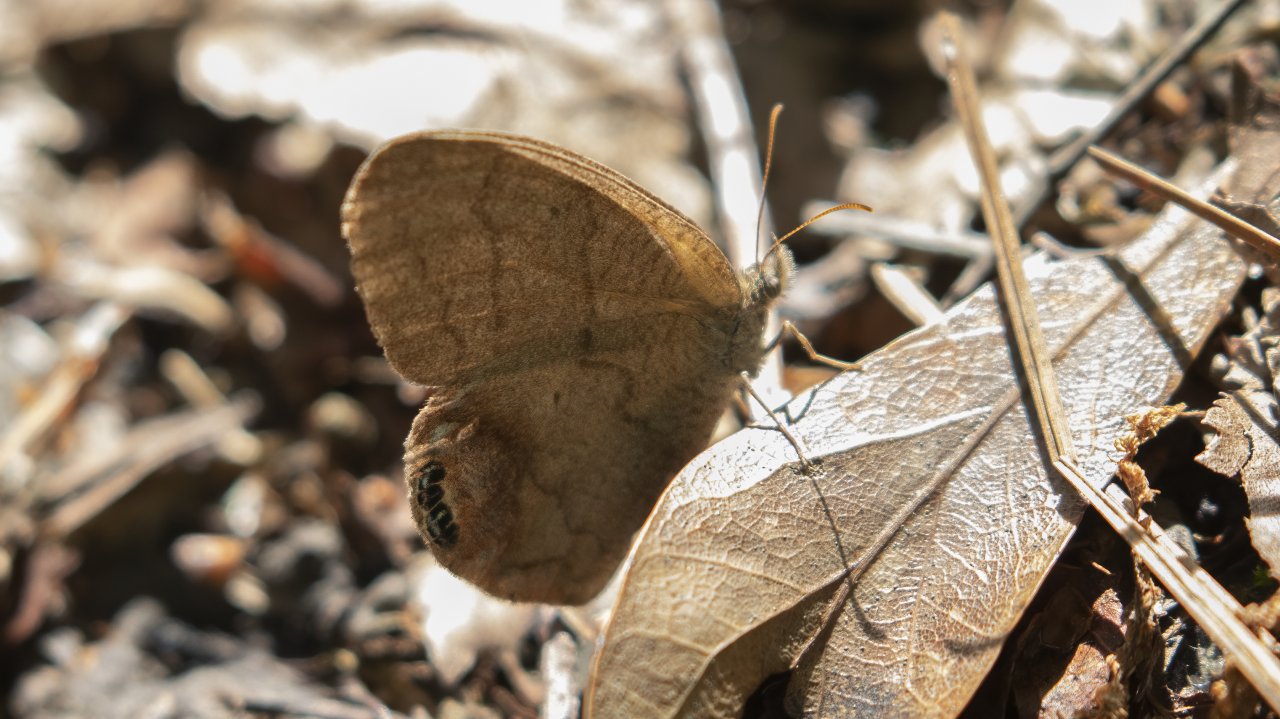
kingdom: Animalia
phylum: Arthropoda
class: Insecta
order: Lepidoptera
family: Nymphalidae
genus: Euptychia
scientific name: Euptychia cornelius
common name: Gemmed Satyr
